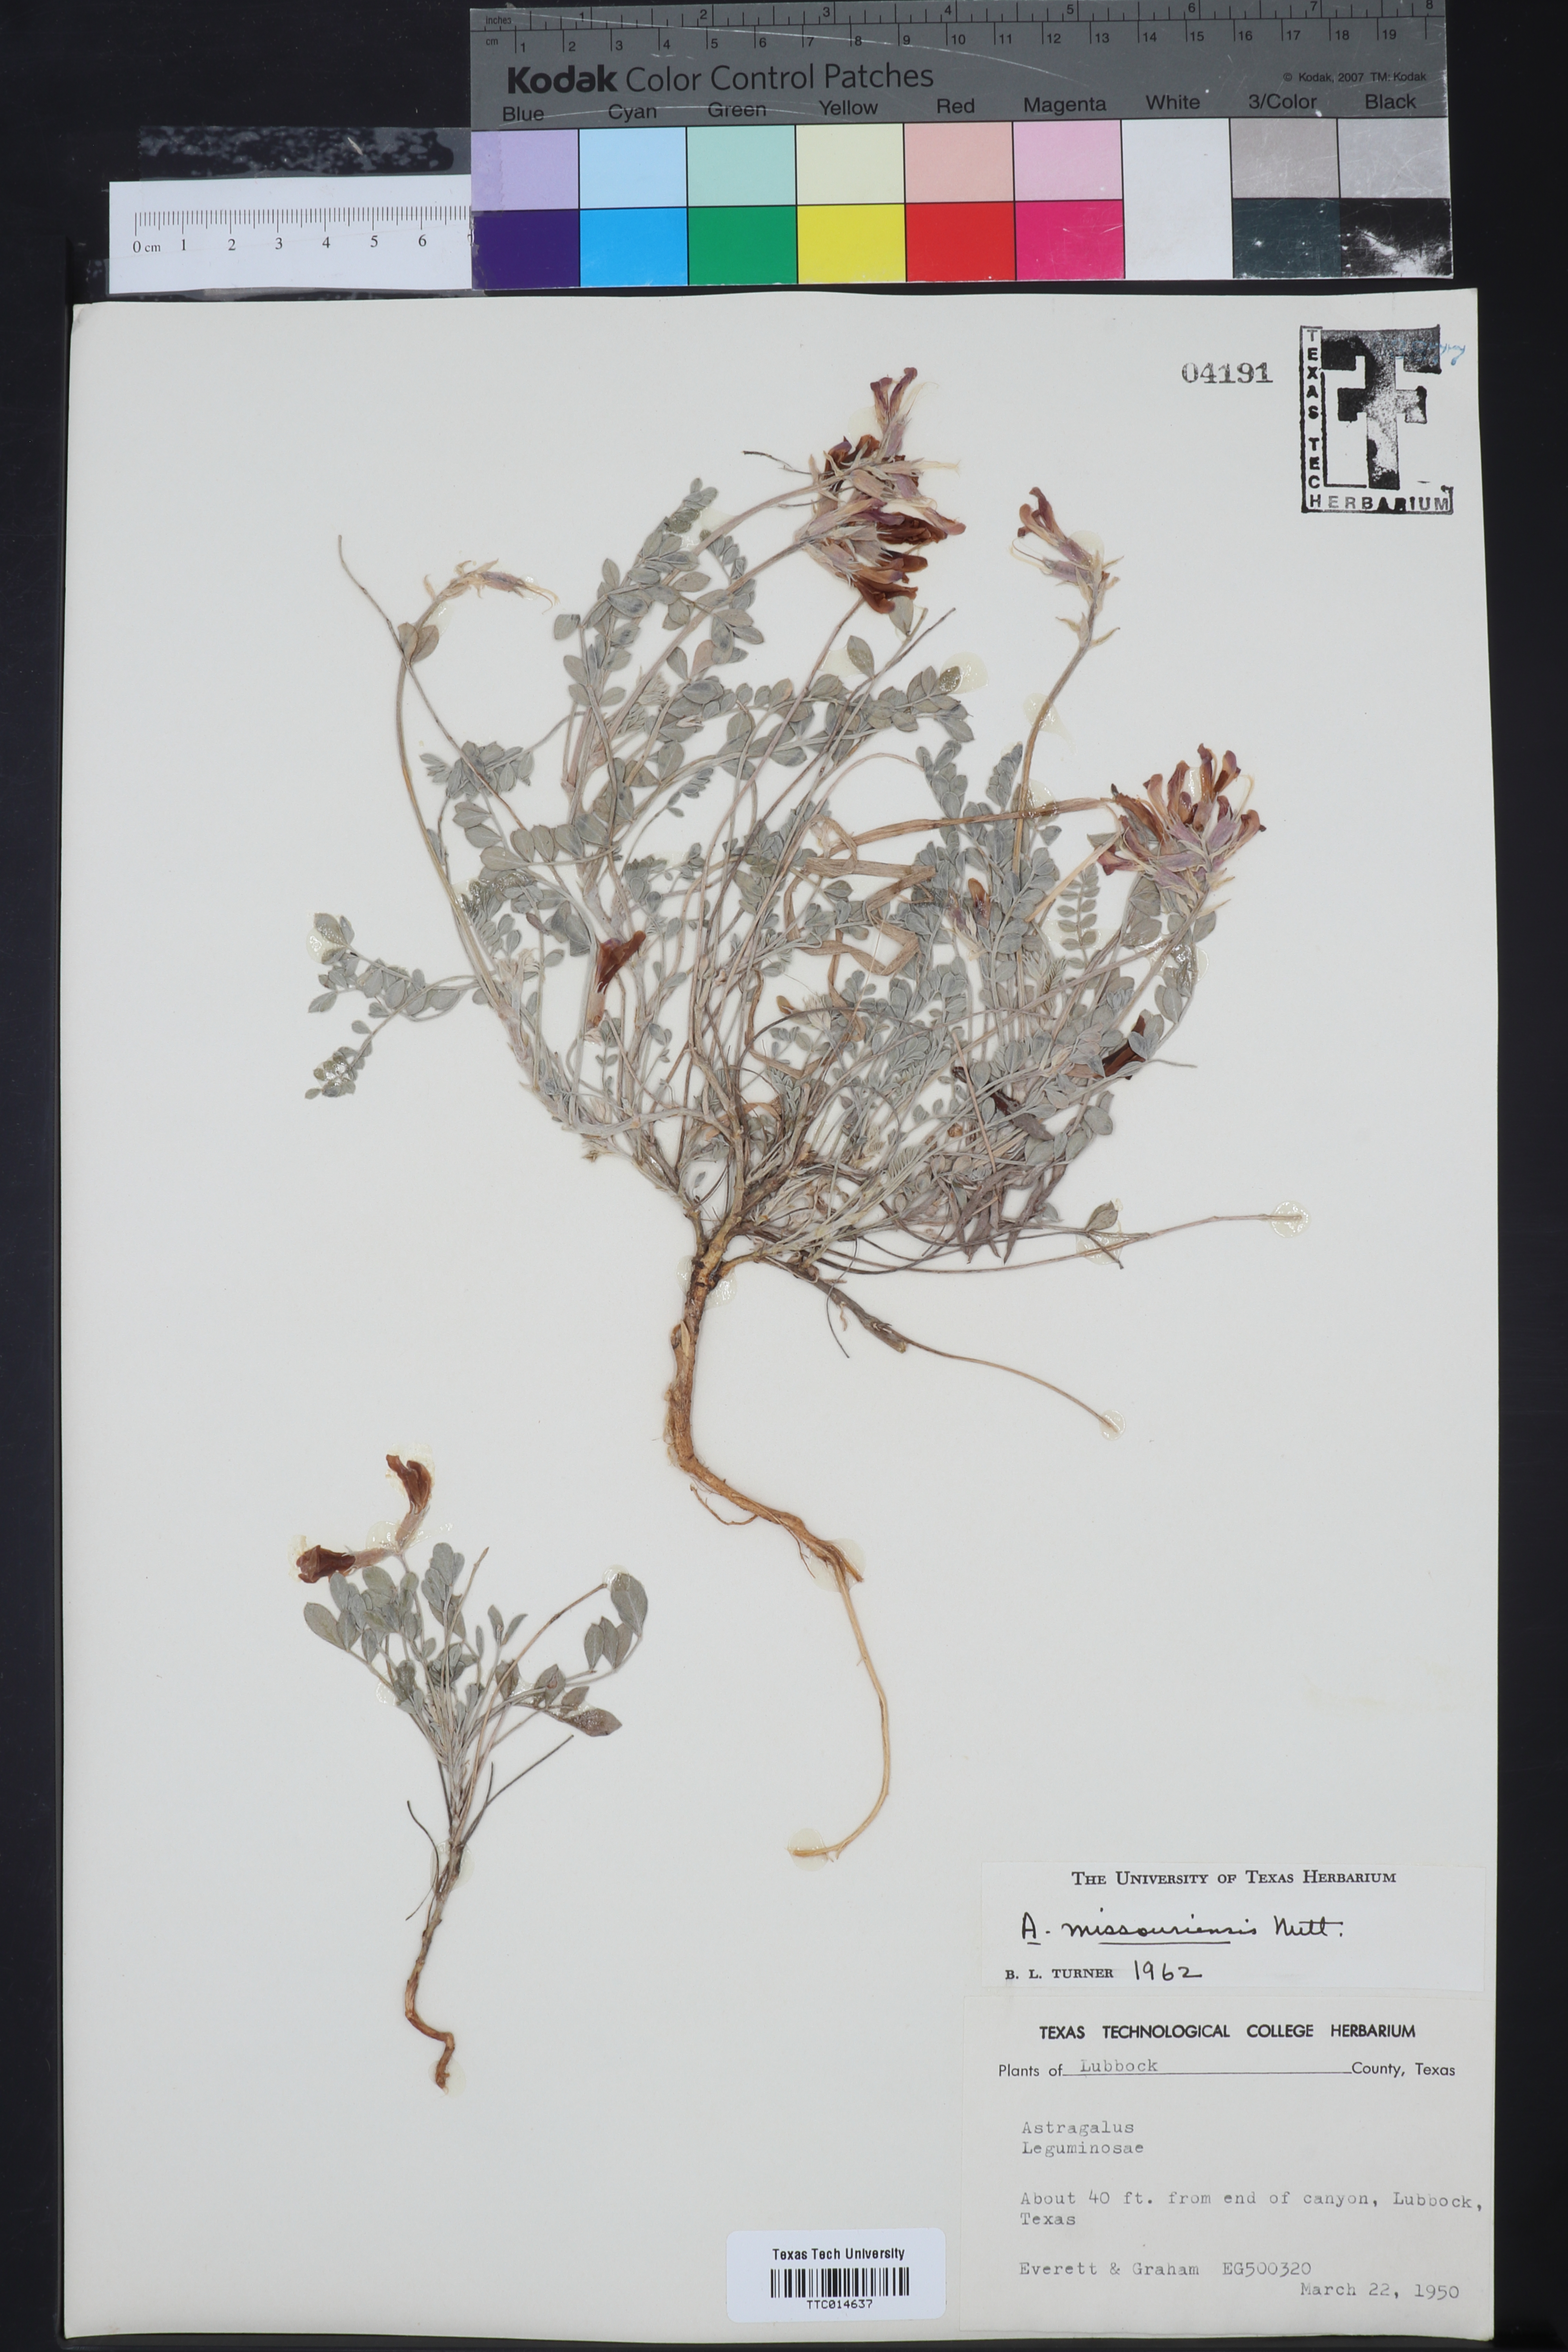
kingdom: Plantae
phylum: Tracheophyta
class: Magnoliopsida
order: Fabales
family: Fabaceae
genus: Astragalus
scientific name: Astragalus missouriensis
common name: Missouri milk-vetch
